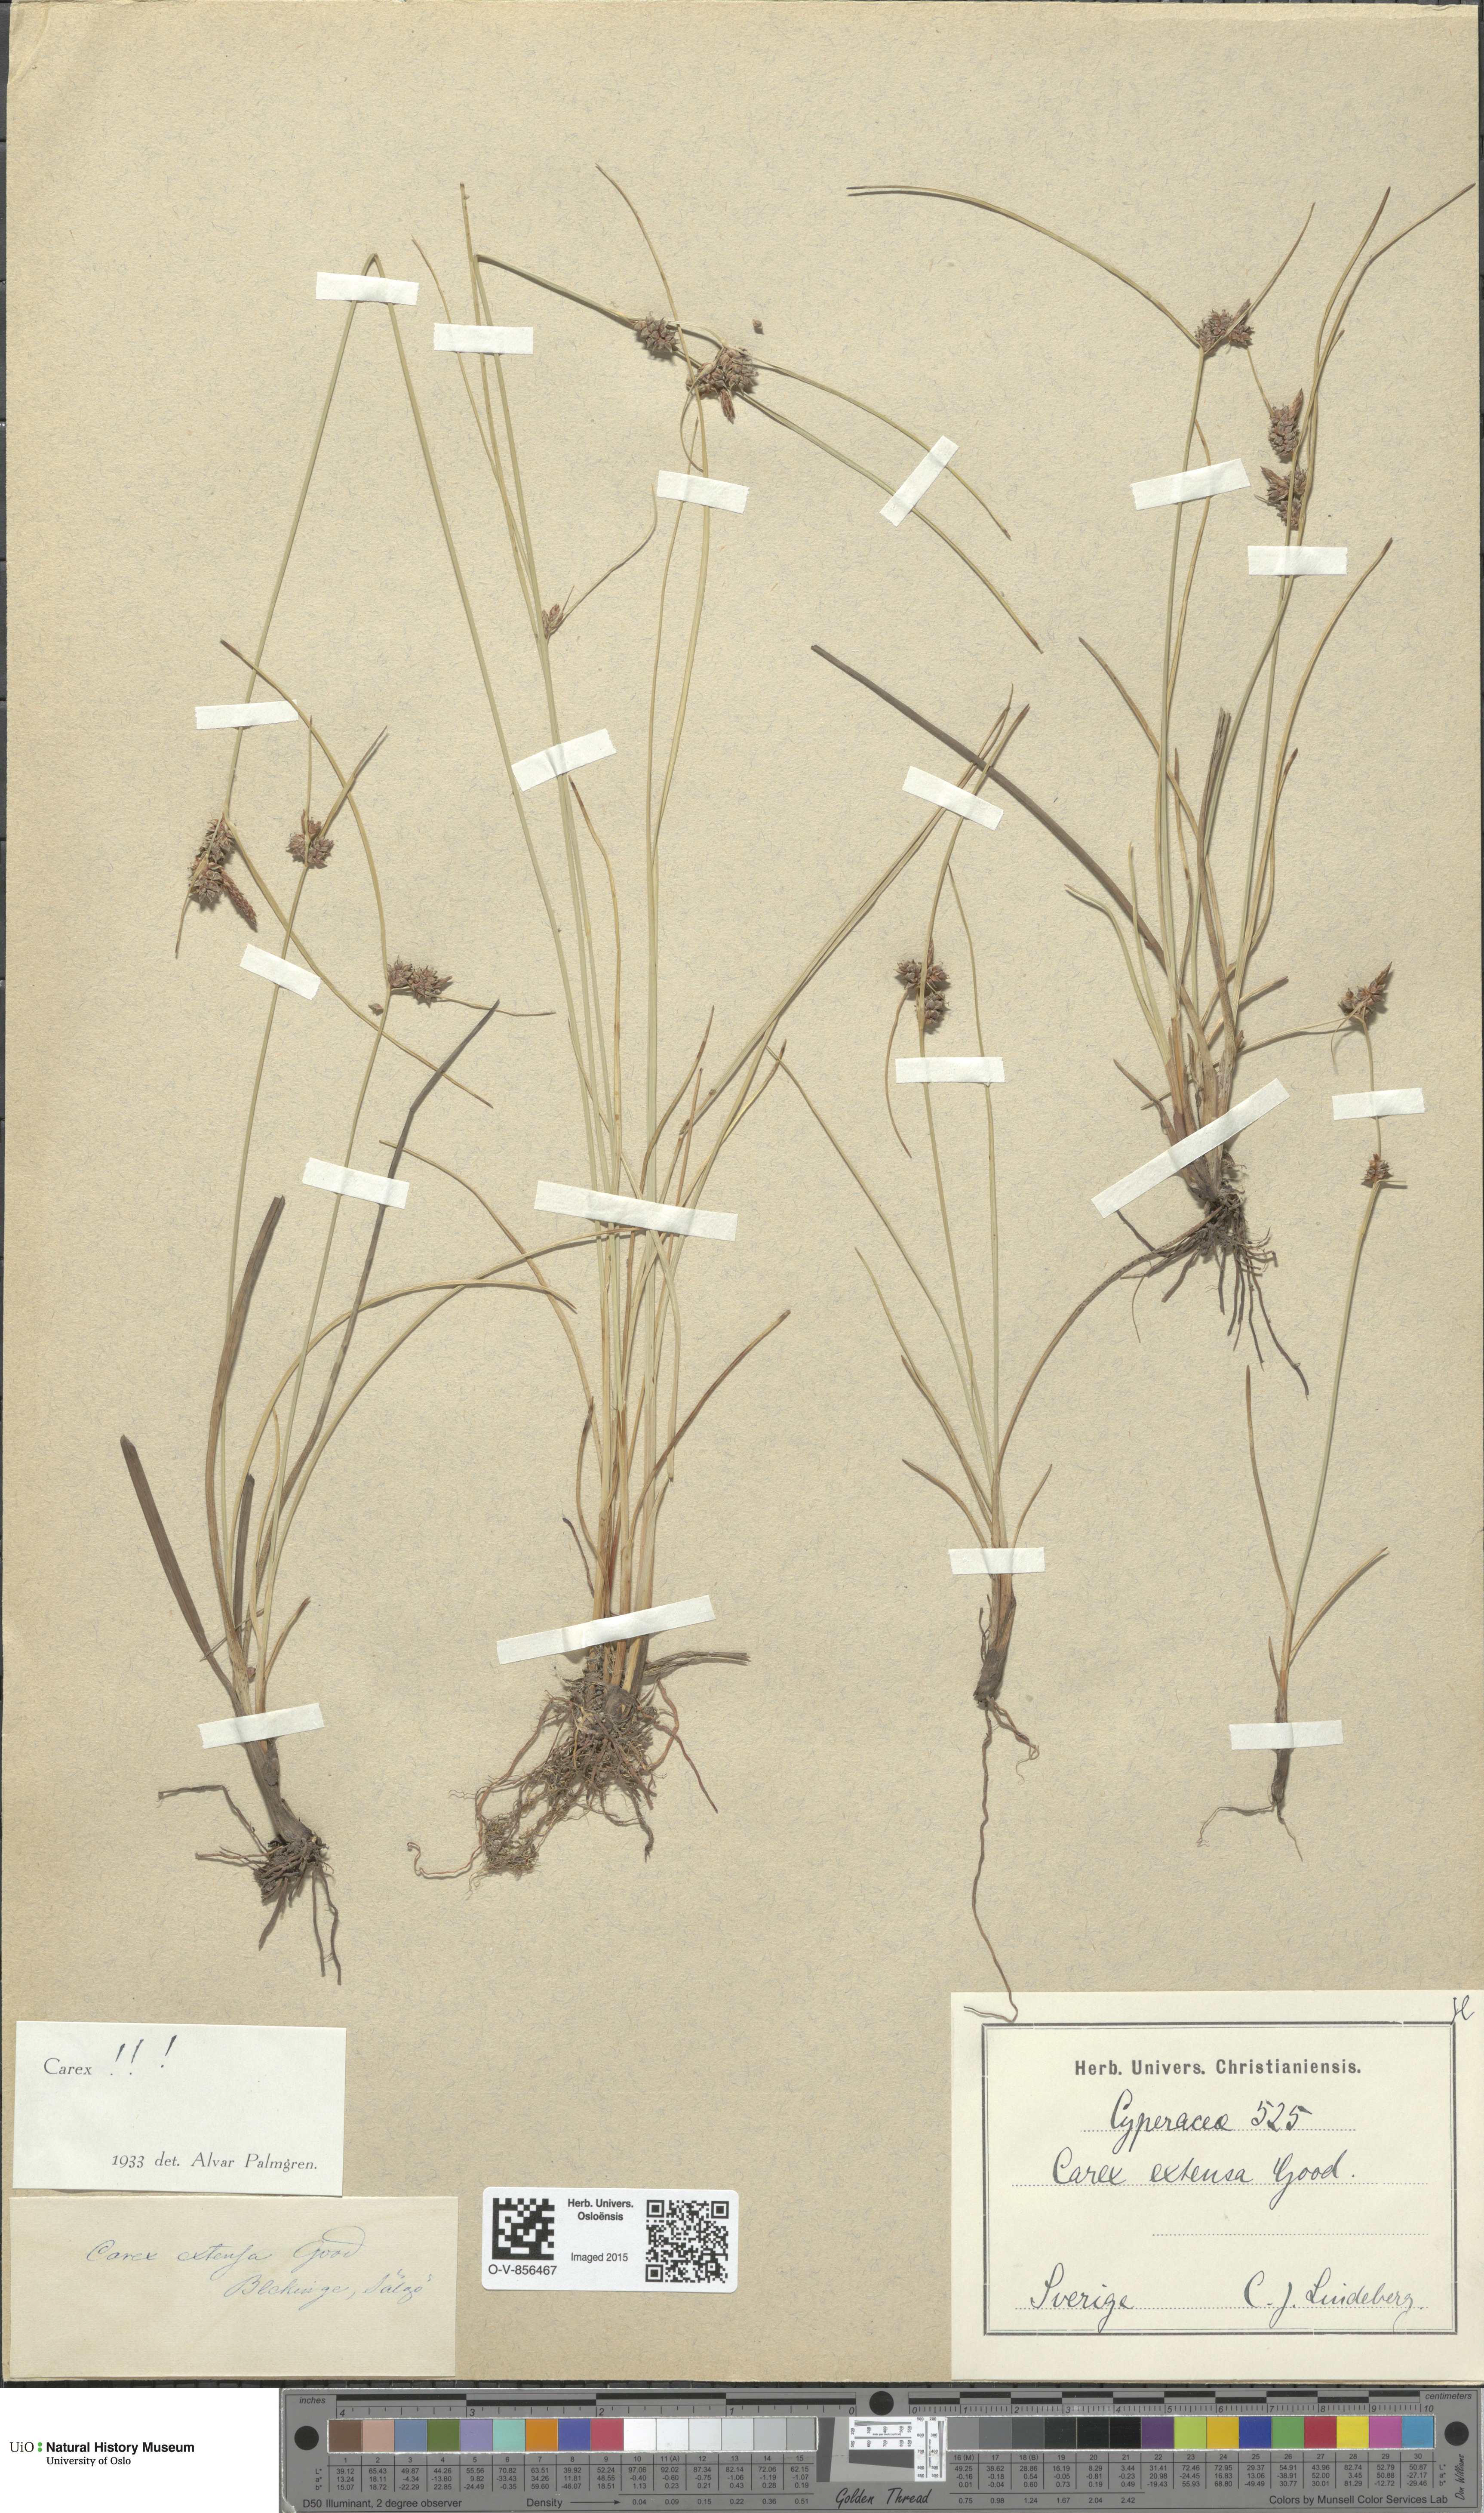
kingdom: Plantae
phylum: Tracheophyta
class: Liliopsida
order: Poales
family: Cyperaceae
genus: Carex
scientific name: Carex extensa
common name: Long-bracted sedge
